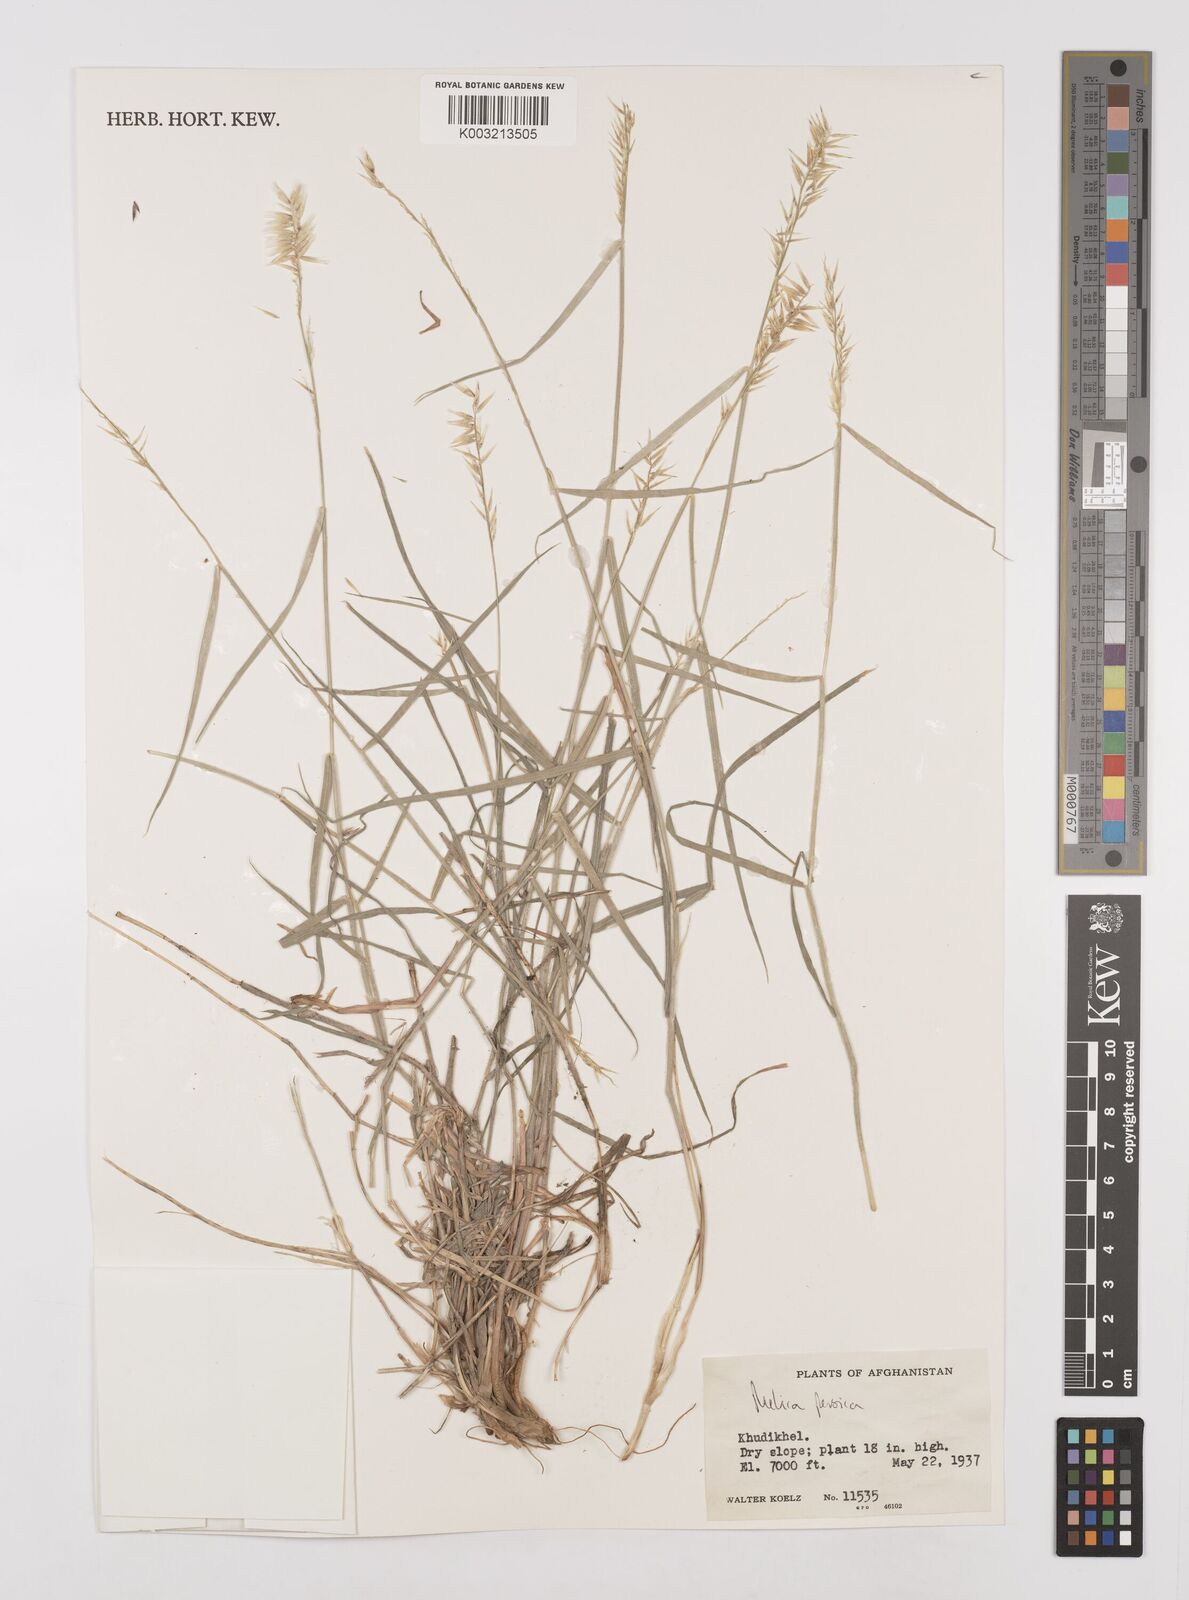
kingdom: Plantae
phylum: Tracheophyta
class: Liliopsida
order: Poales
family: Poaceae
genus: Melica
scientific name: Melica persica
